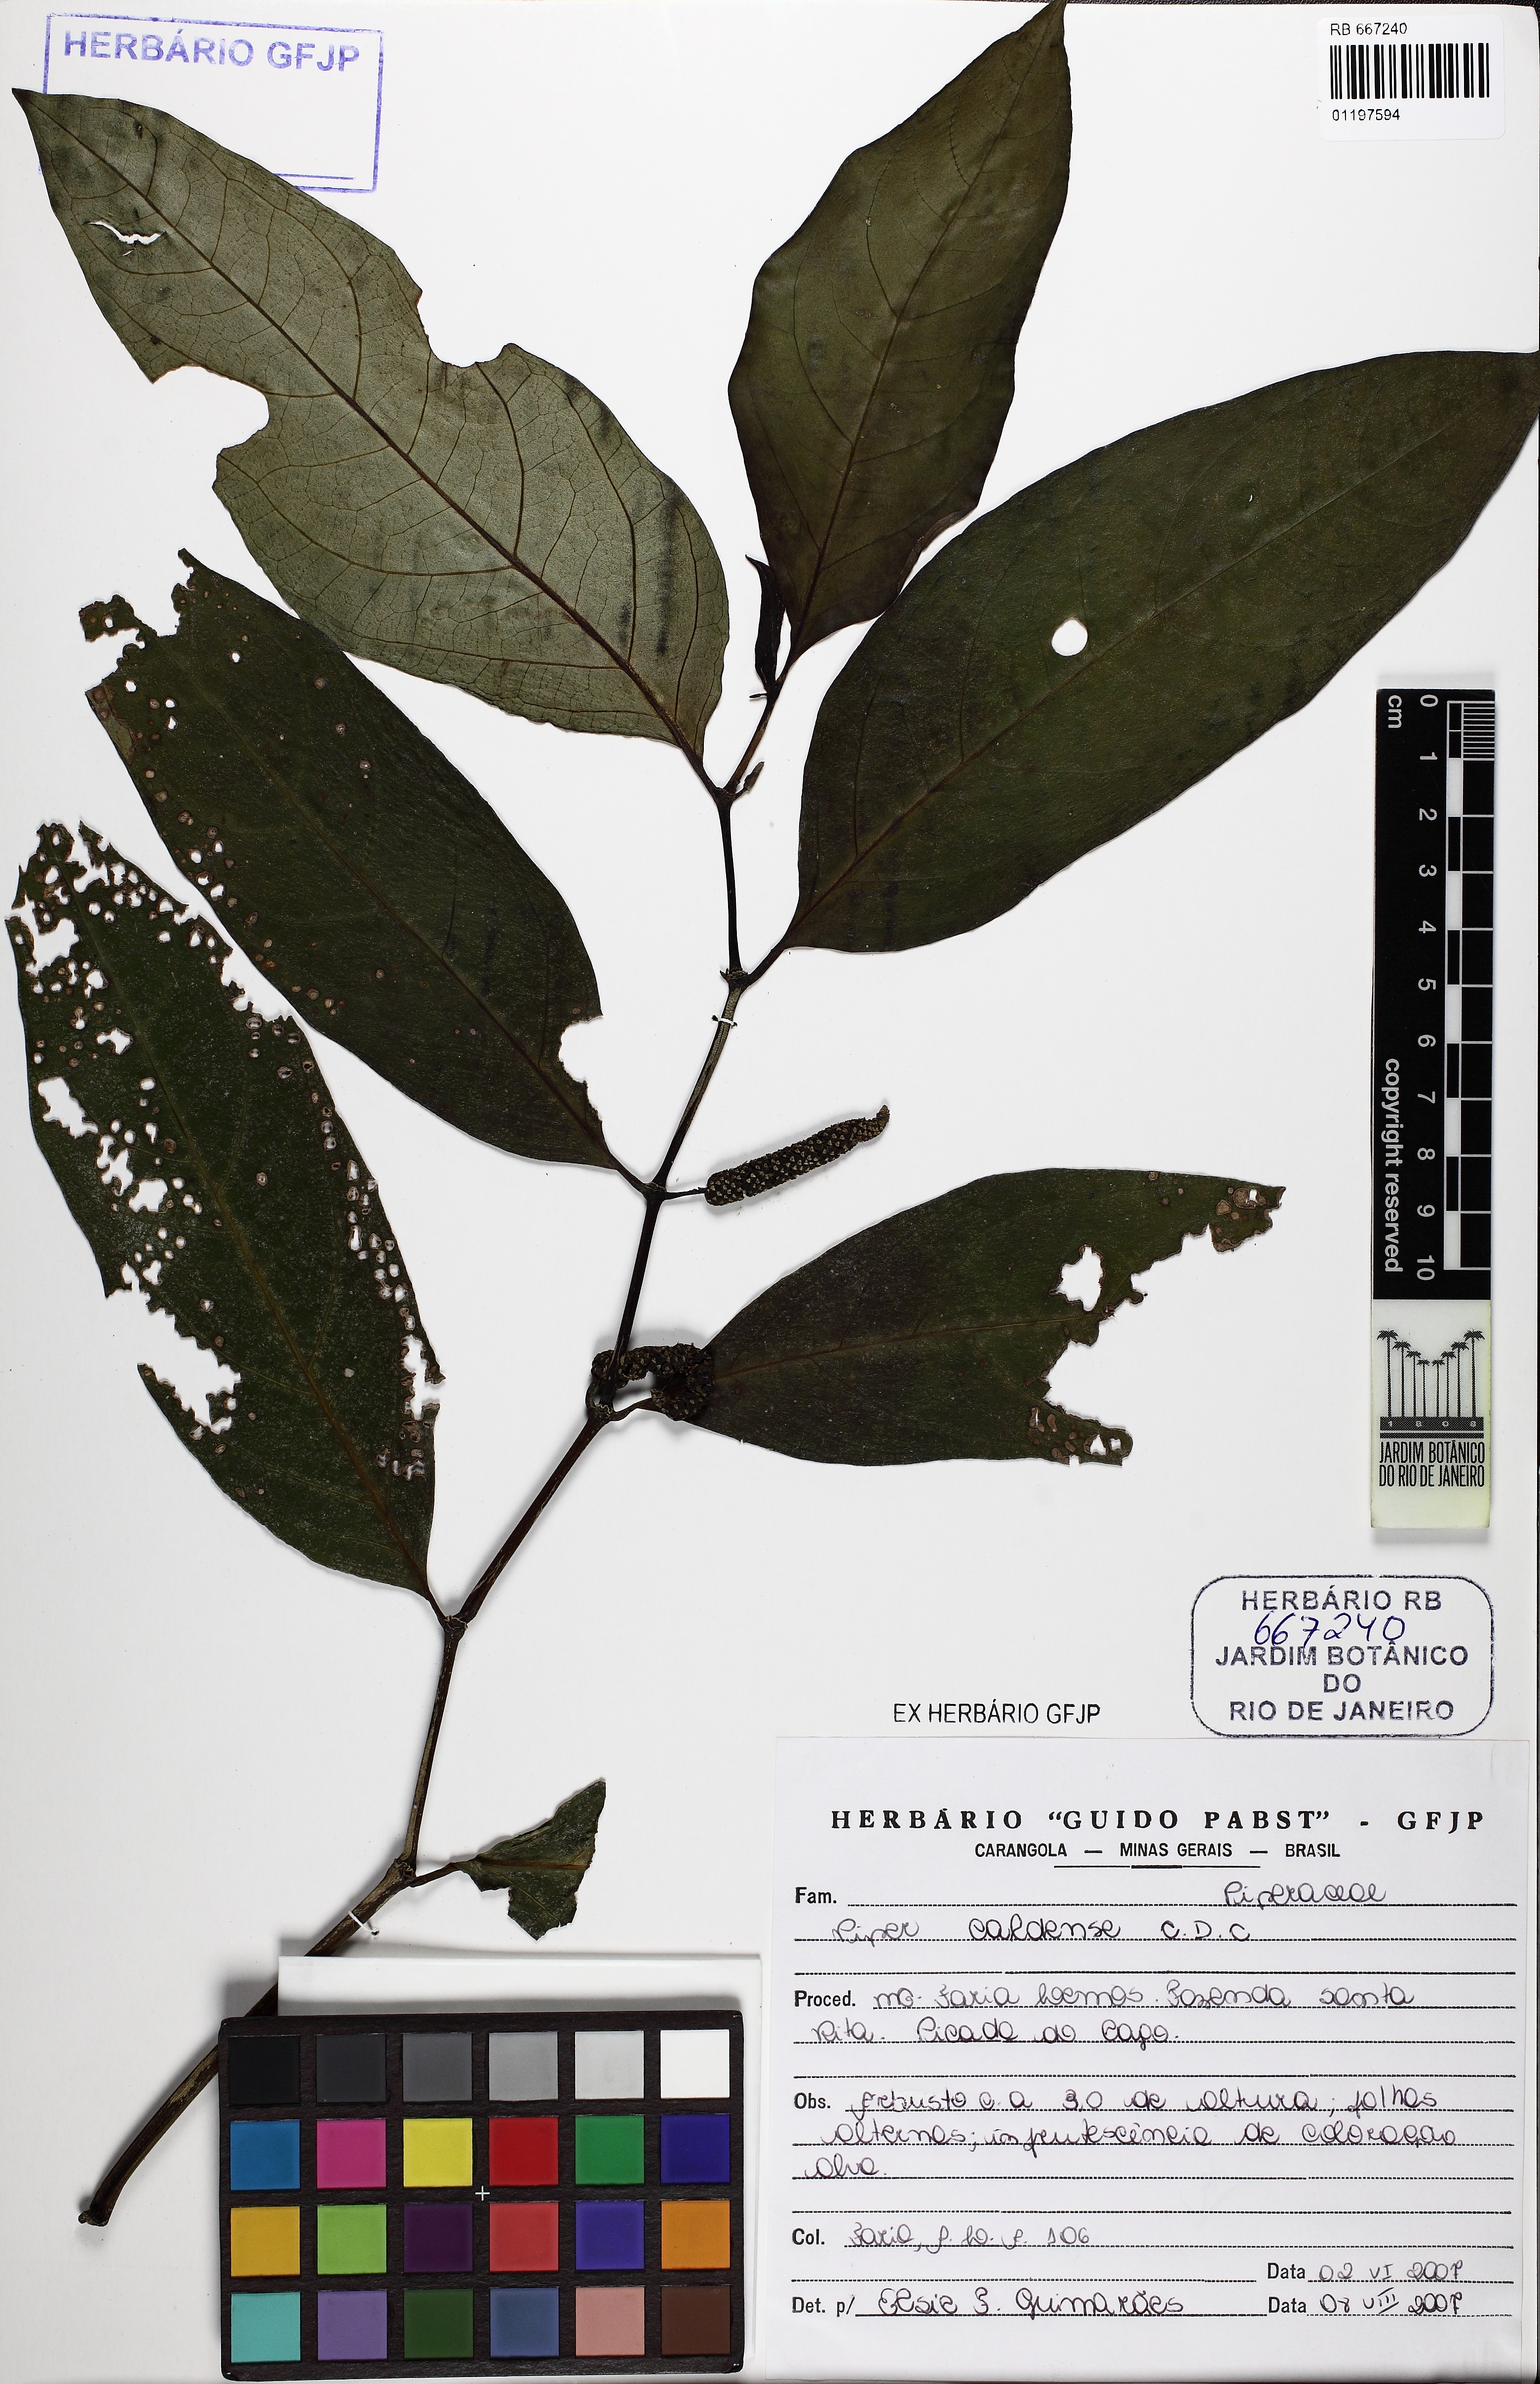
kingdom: Plantae
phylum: Tracheophyta
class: Magnoliopsida
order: Piperales
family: Piperaceae
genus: Piper
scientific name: Piper caldense
